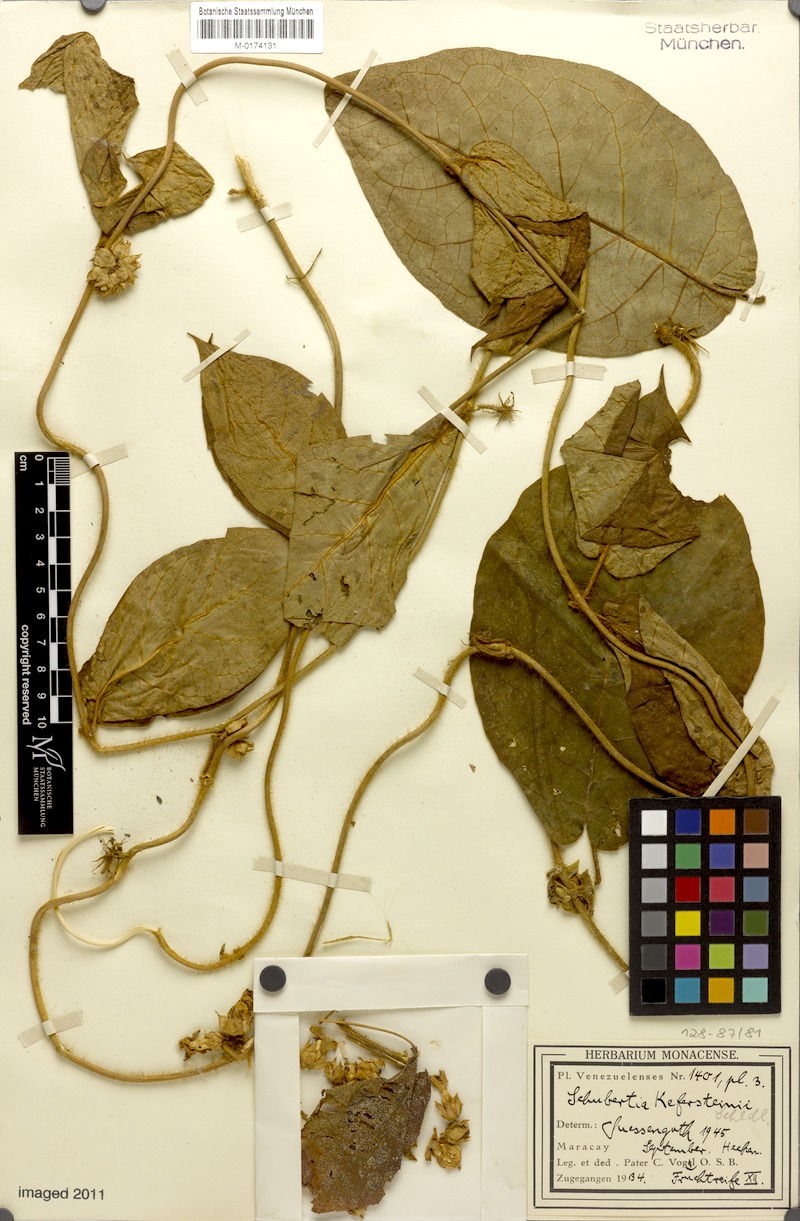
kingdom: Plantae
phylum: Tracheophyta
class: Magnoliopsida
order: Gentianales
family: Apocynaceae
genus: Schubertia
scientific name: Schubertia kefersteinii
